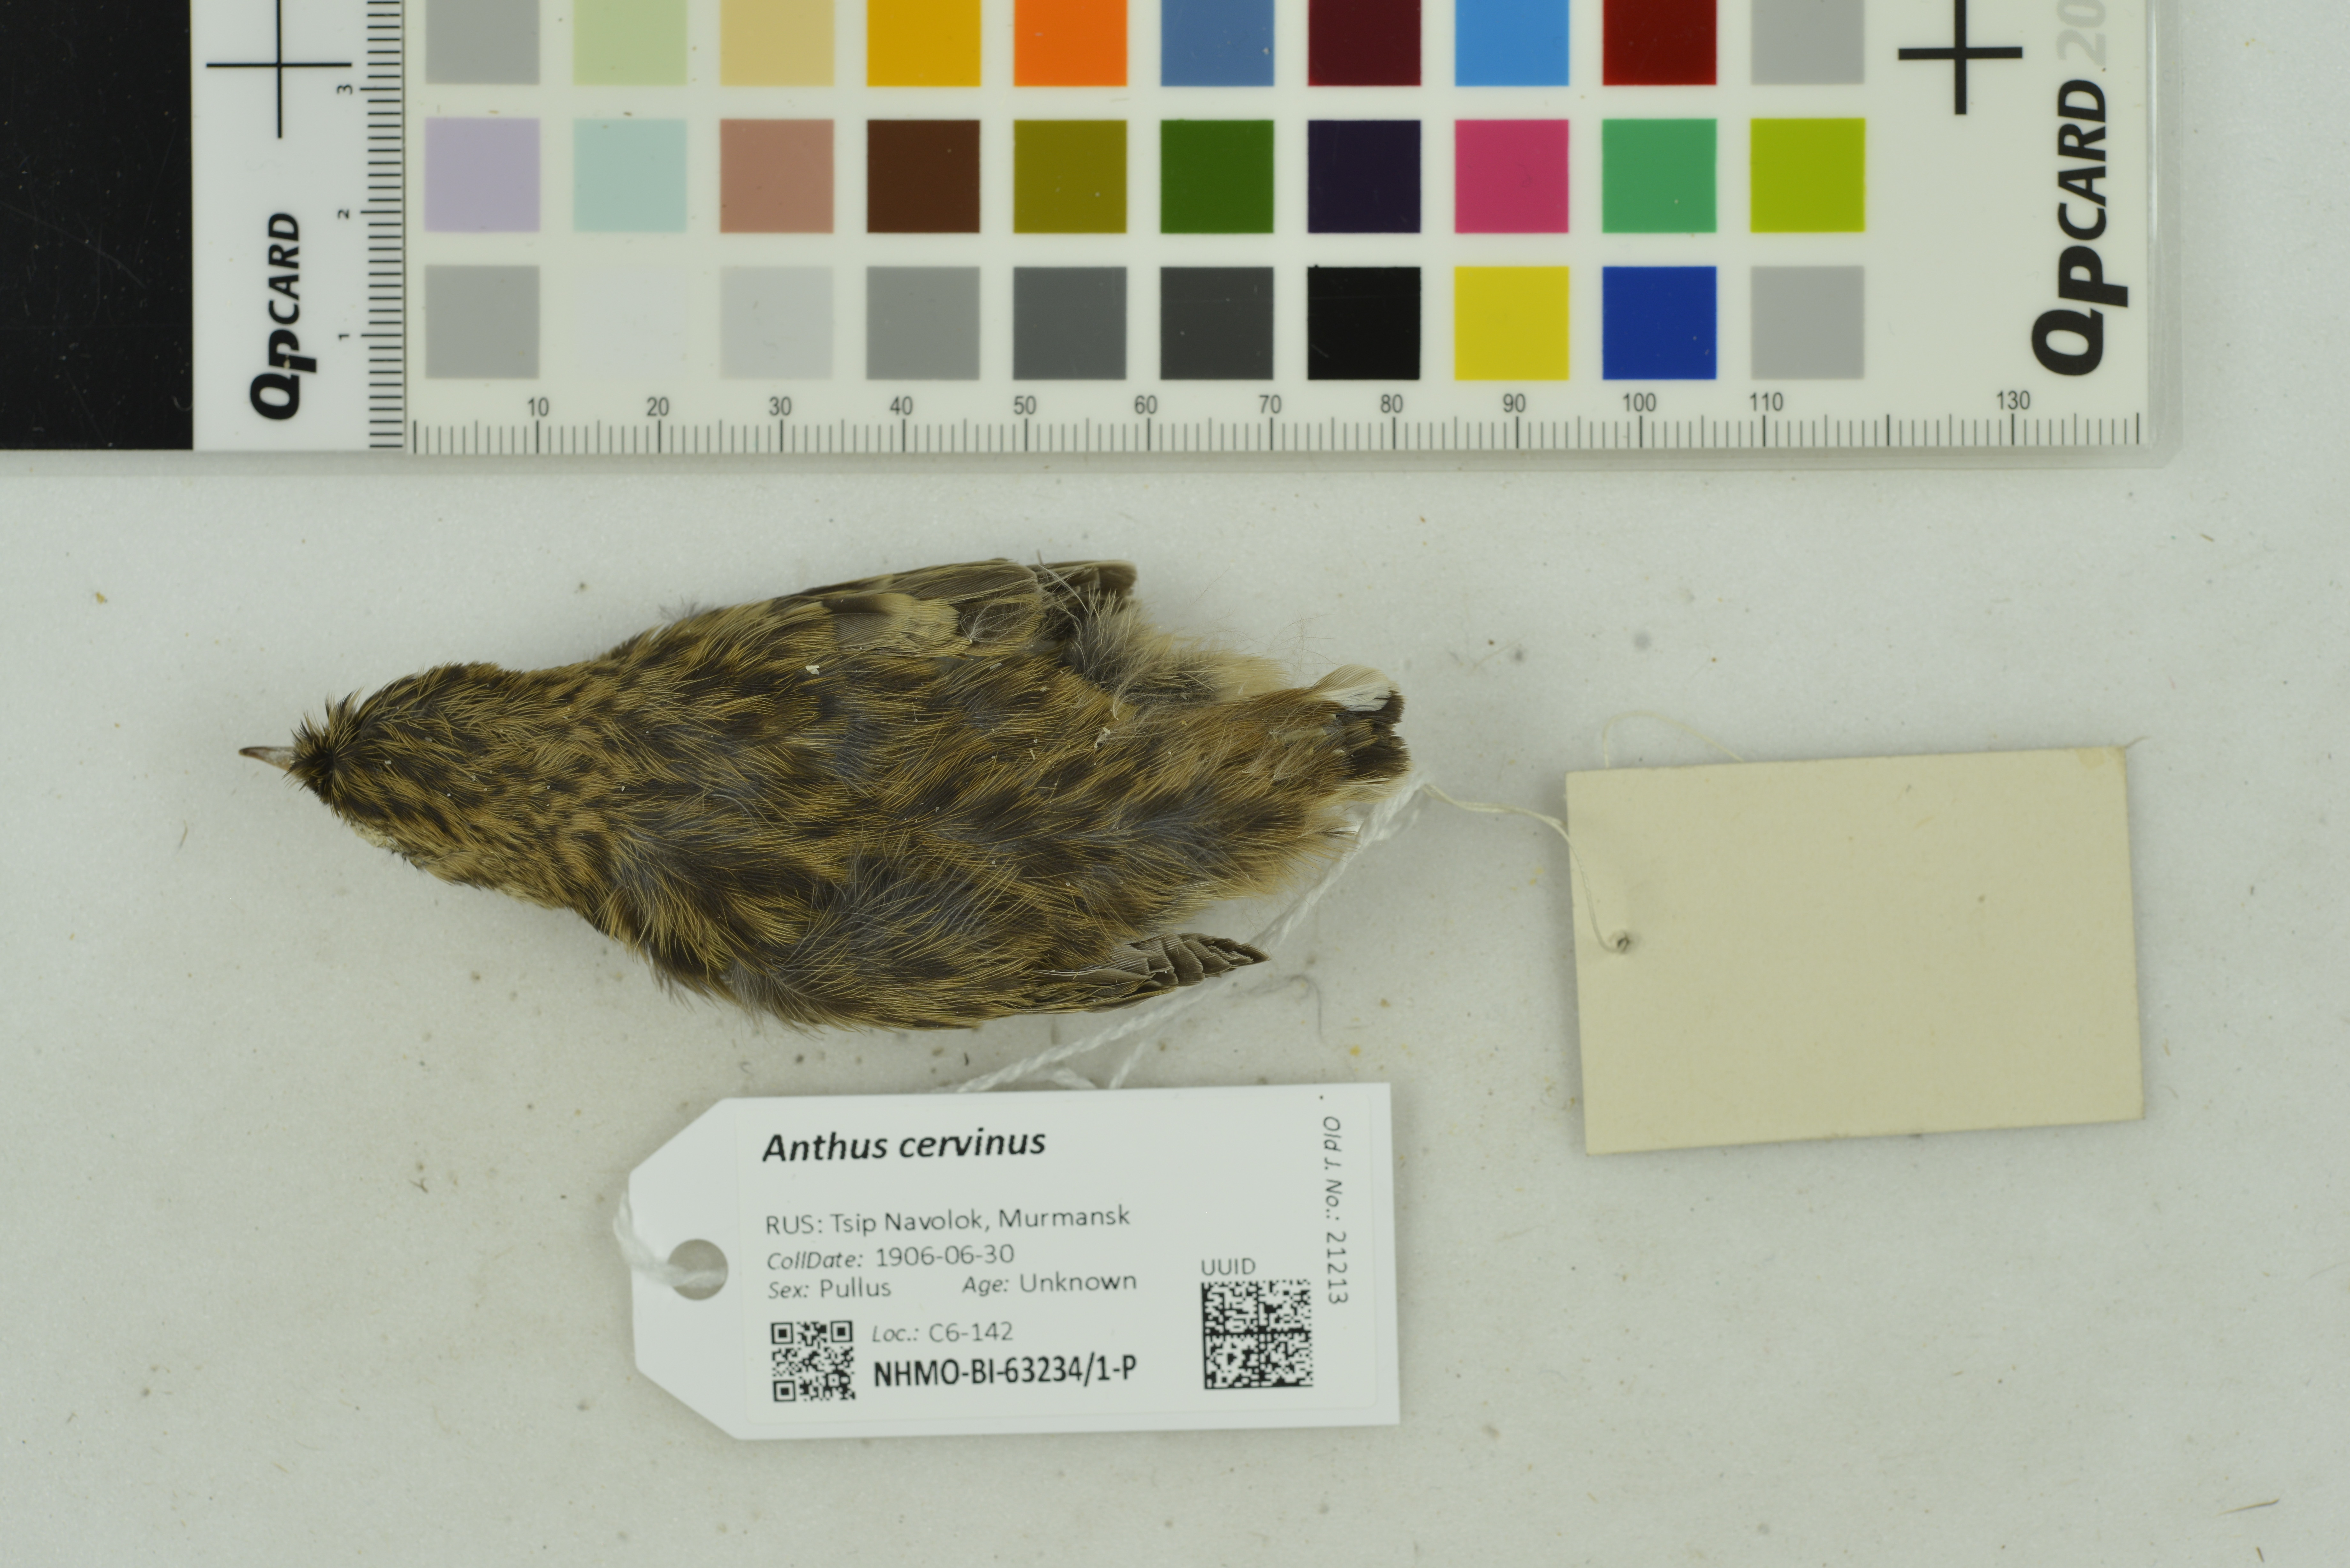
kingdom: Animalia
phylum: Chordata
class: Aves
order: Passeriformes
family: Motacillidae
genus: Anthus
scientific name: Anthus cervinus
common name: Red-throated pipit
